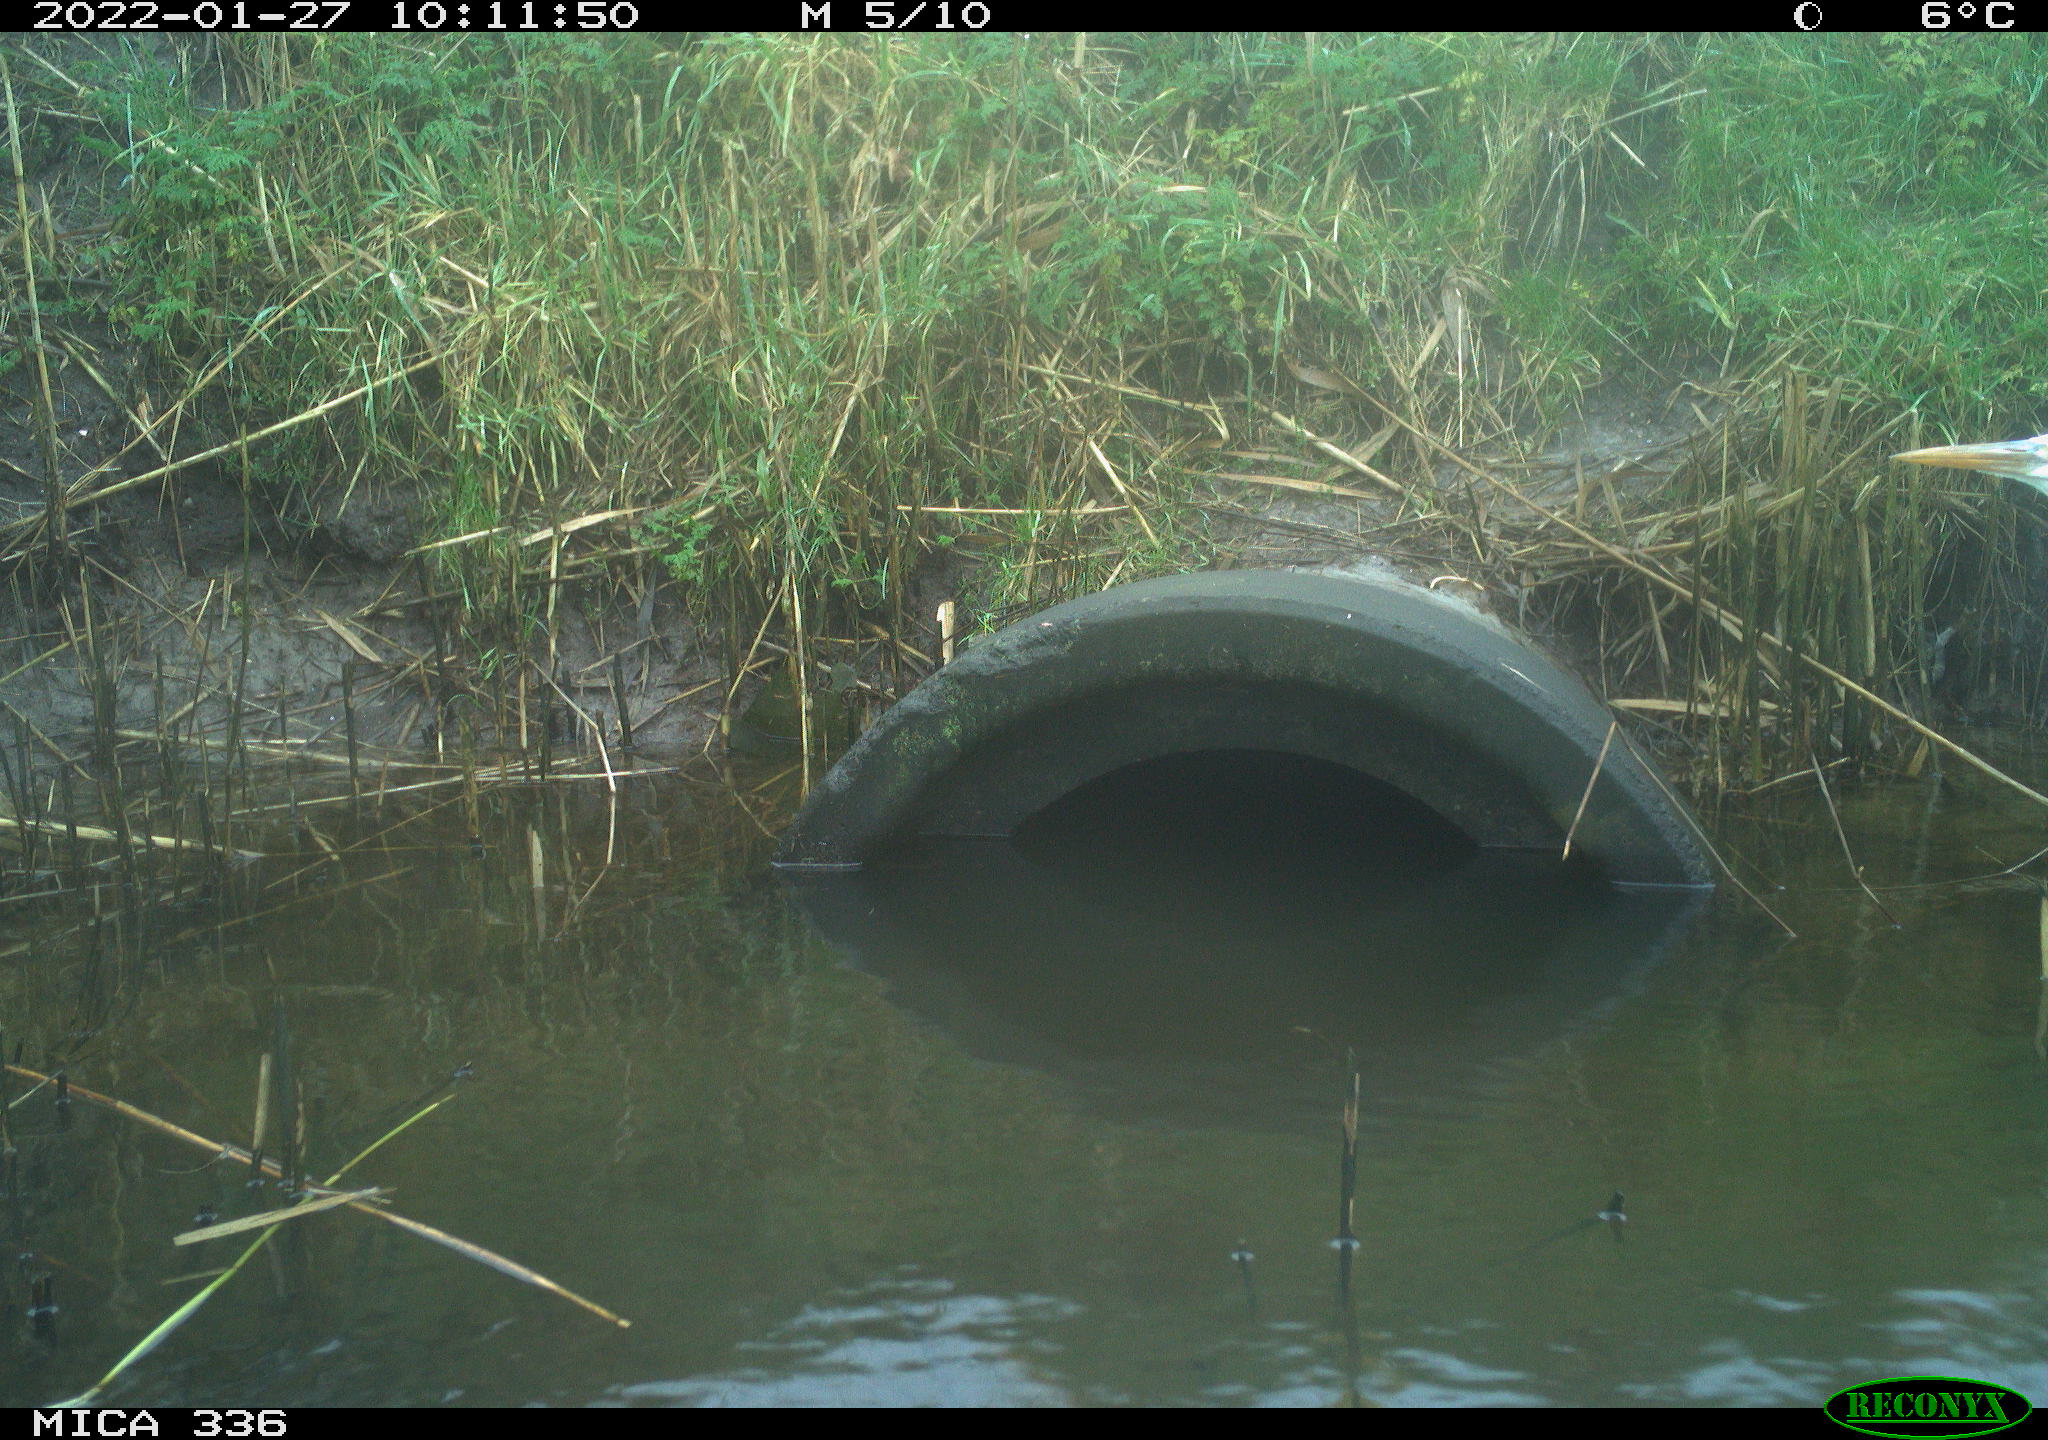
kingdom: Animalia
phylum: Chordata
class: Aves
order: Pelecaniformes
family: Ardeidae
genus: Ardea
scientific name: Ardea cinerea
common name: Grey heron
